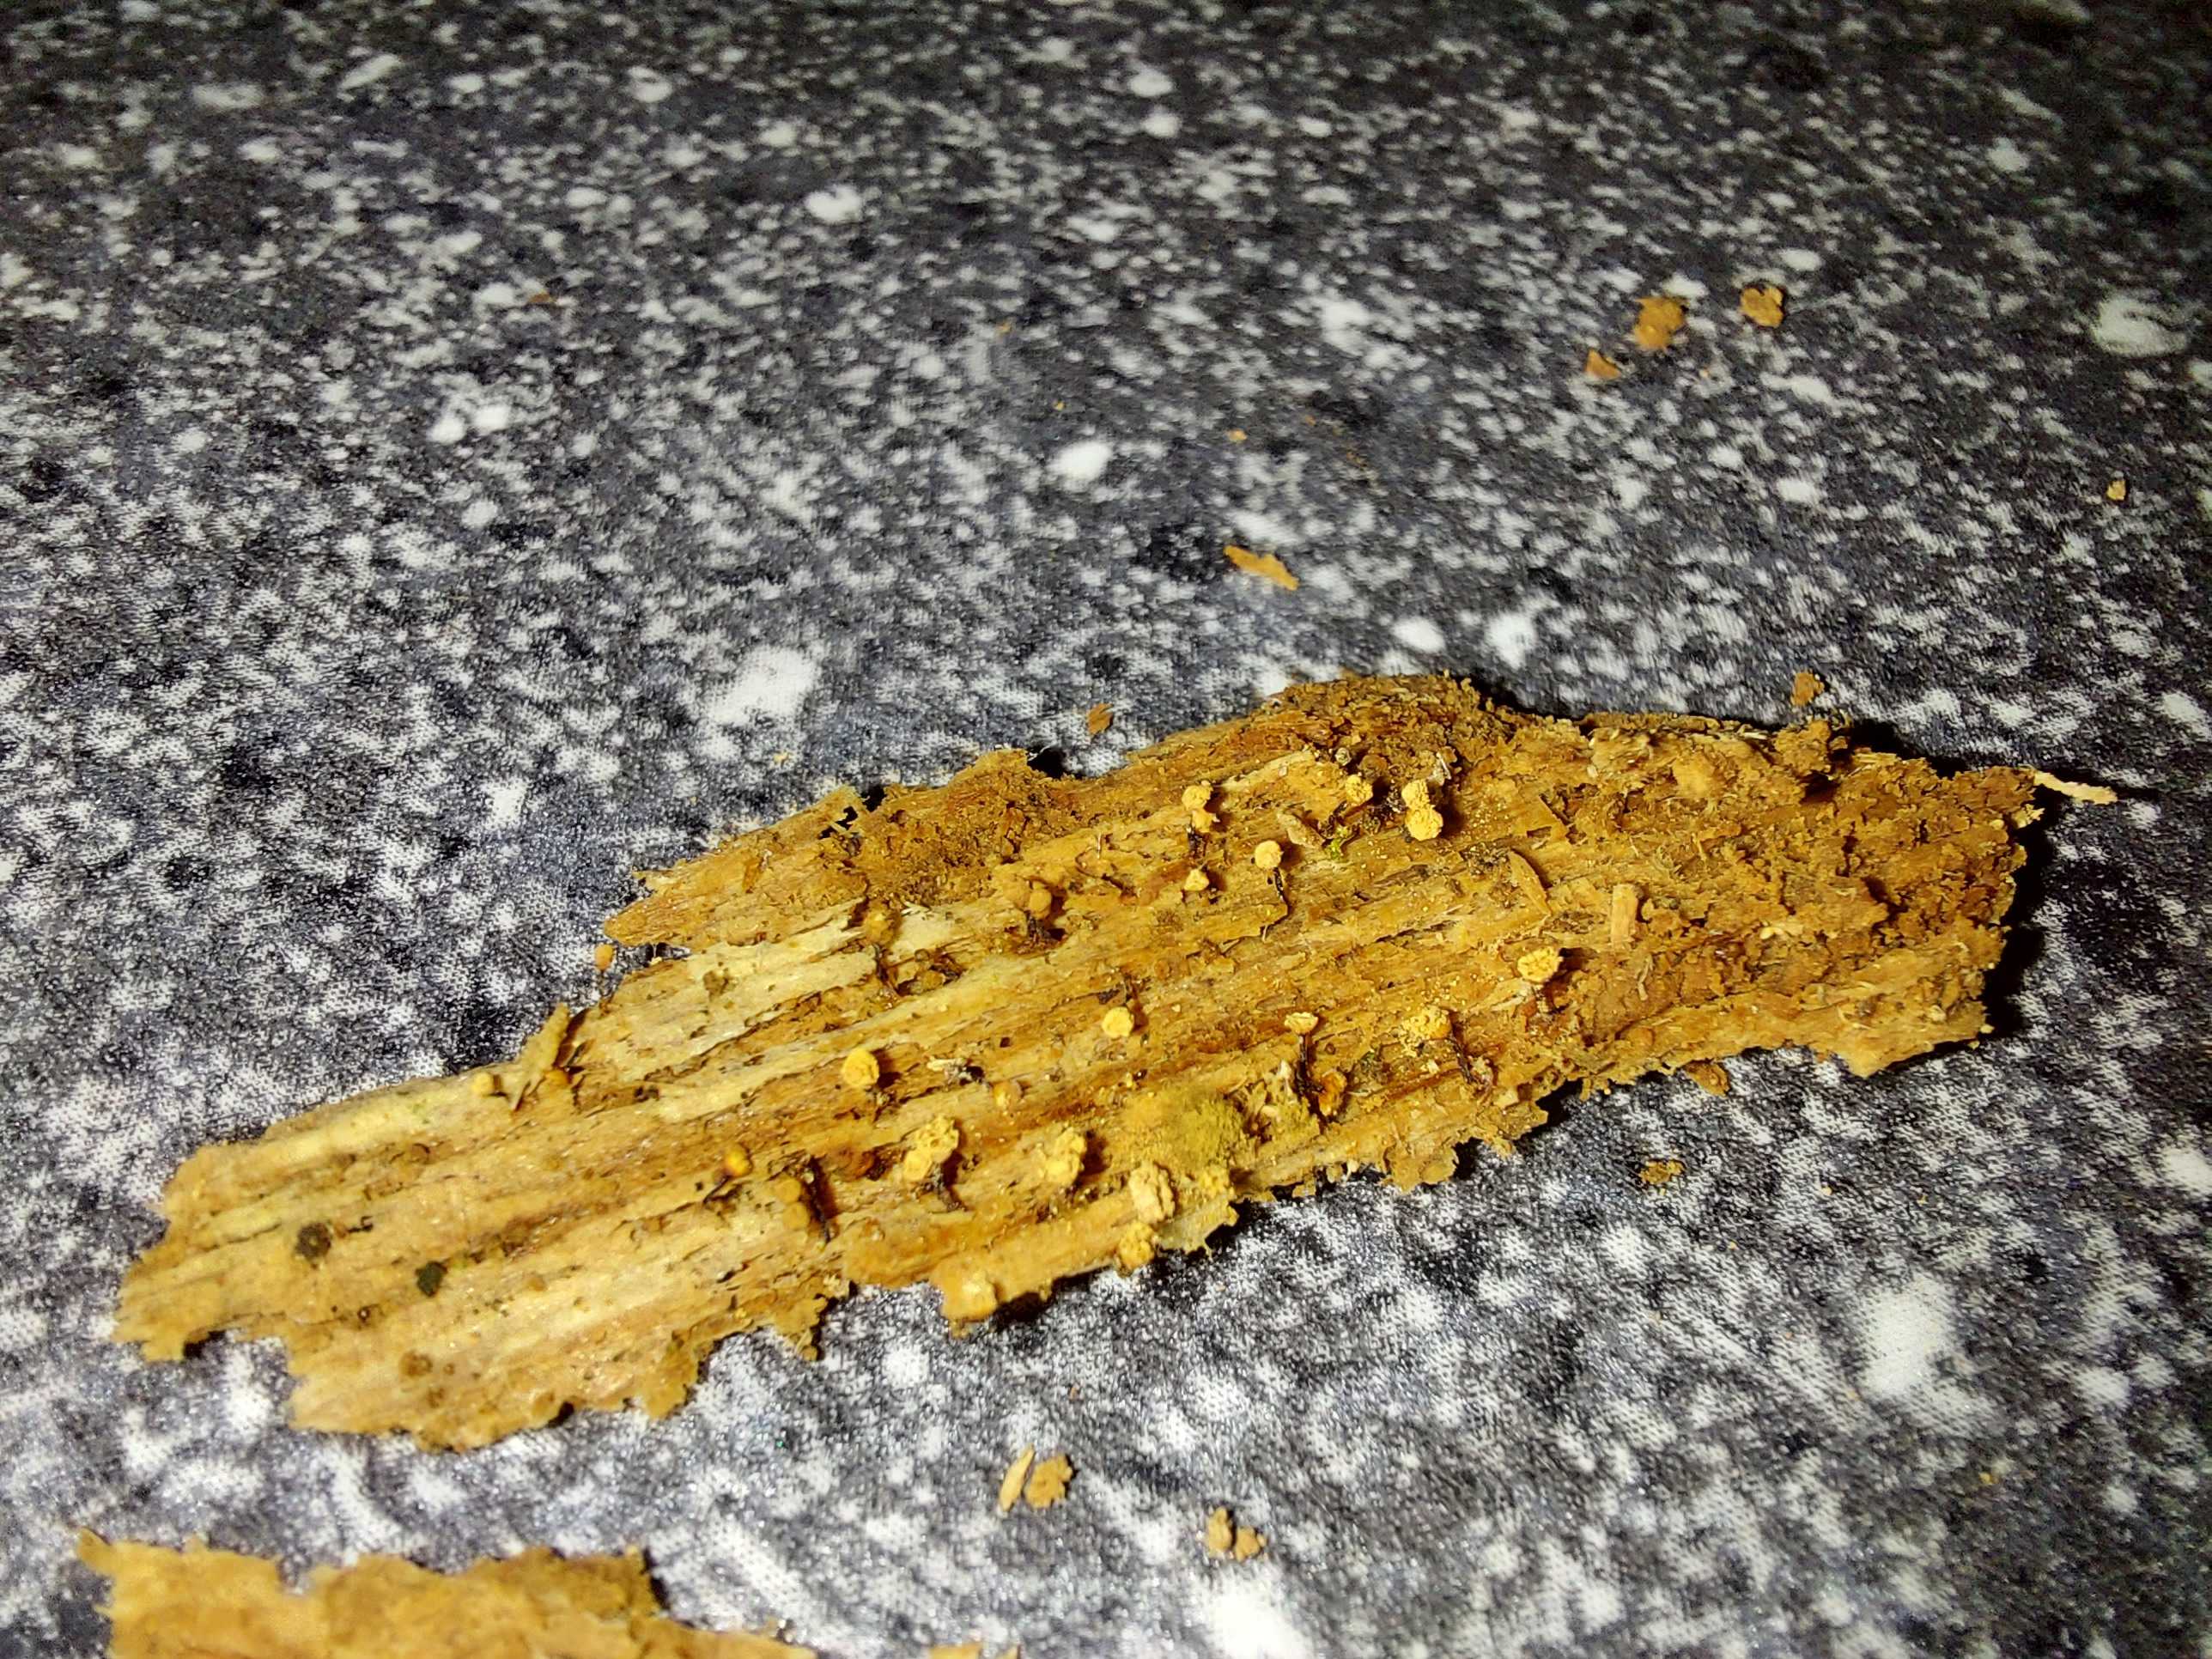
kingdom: Protozoa
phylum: Mycetozoa
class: Myxomycetes
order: Cribrariales
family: Cribrariaceae
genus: Cribraria
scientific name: Cribraria
